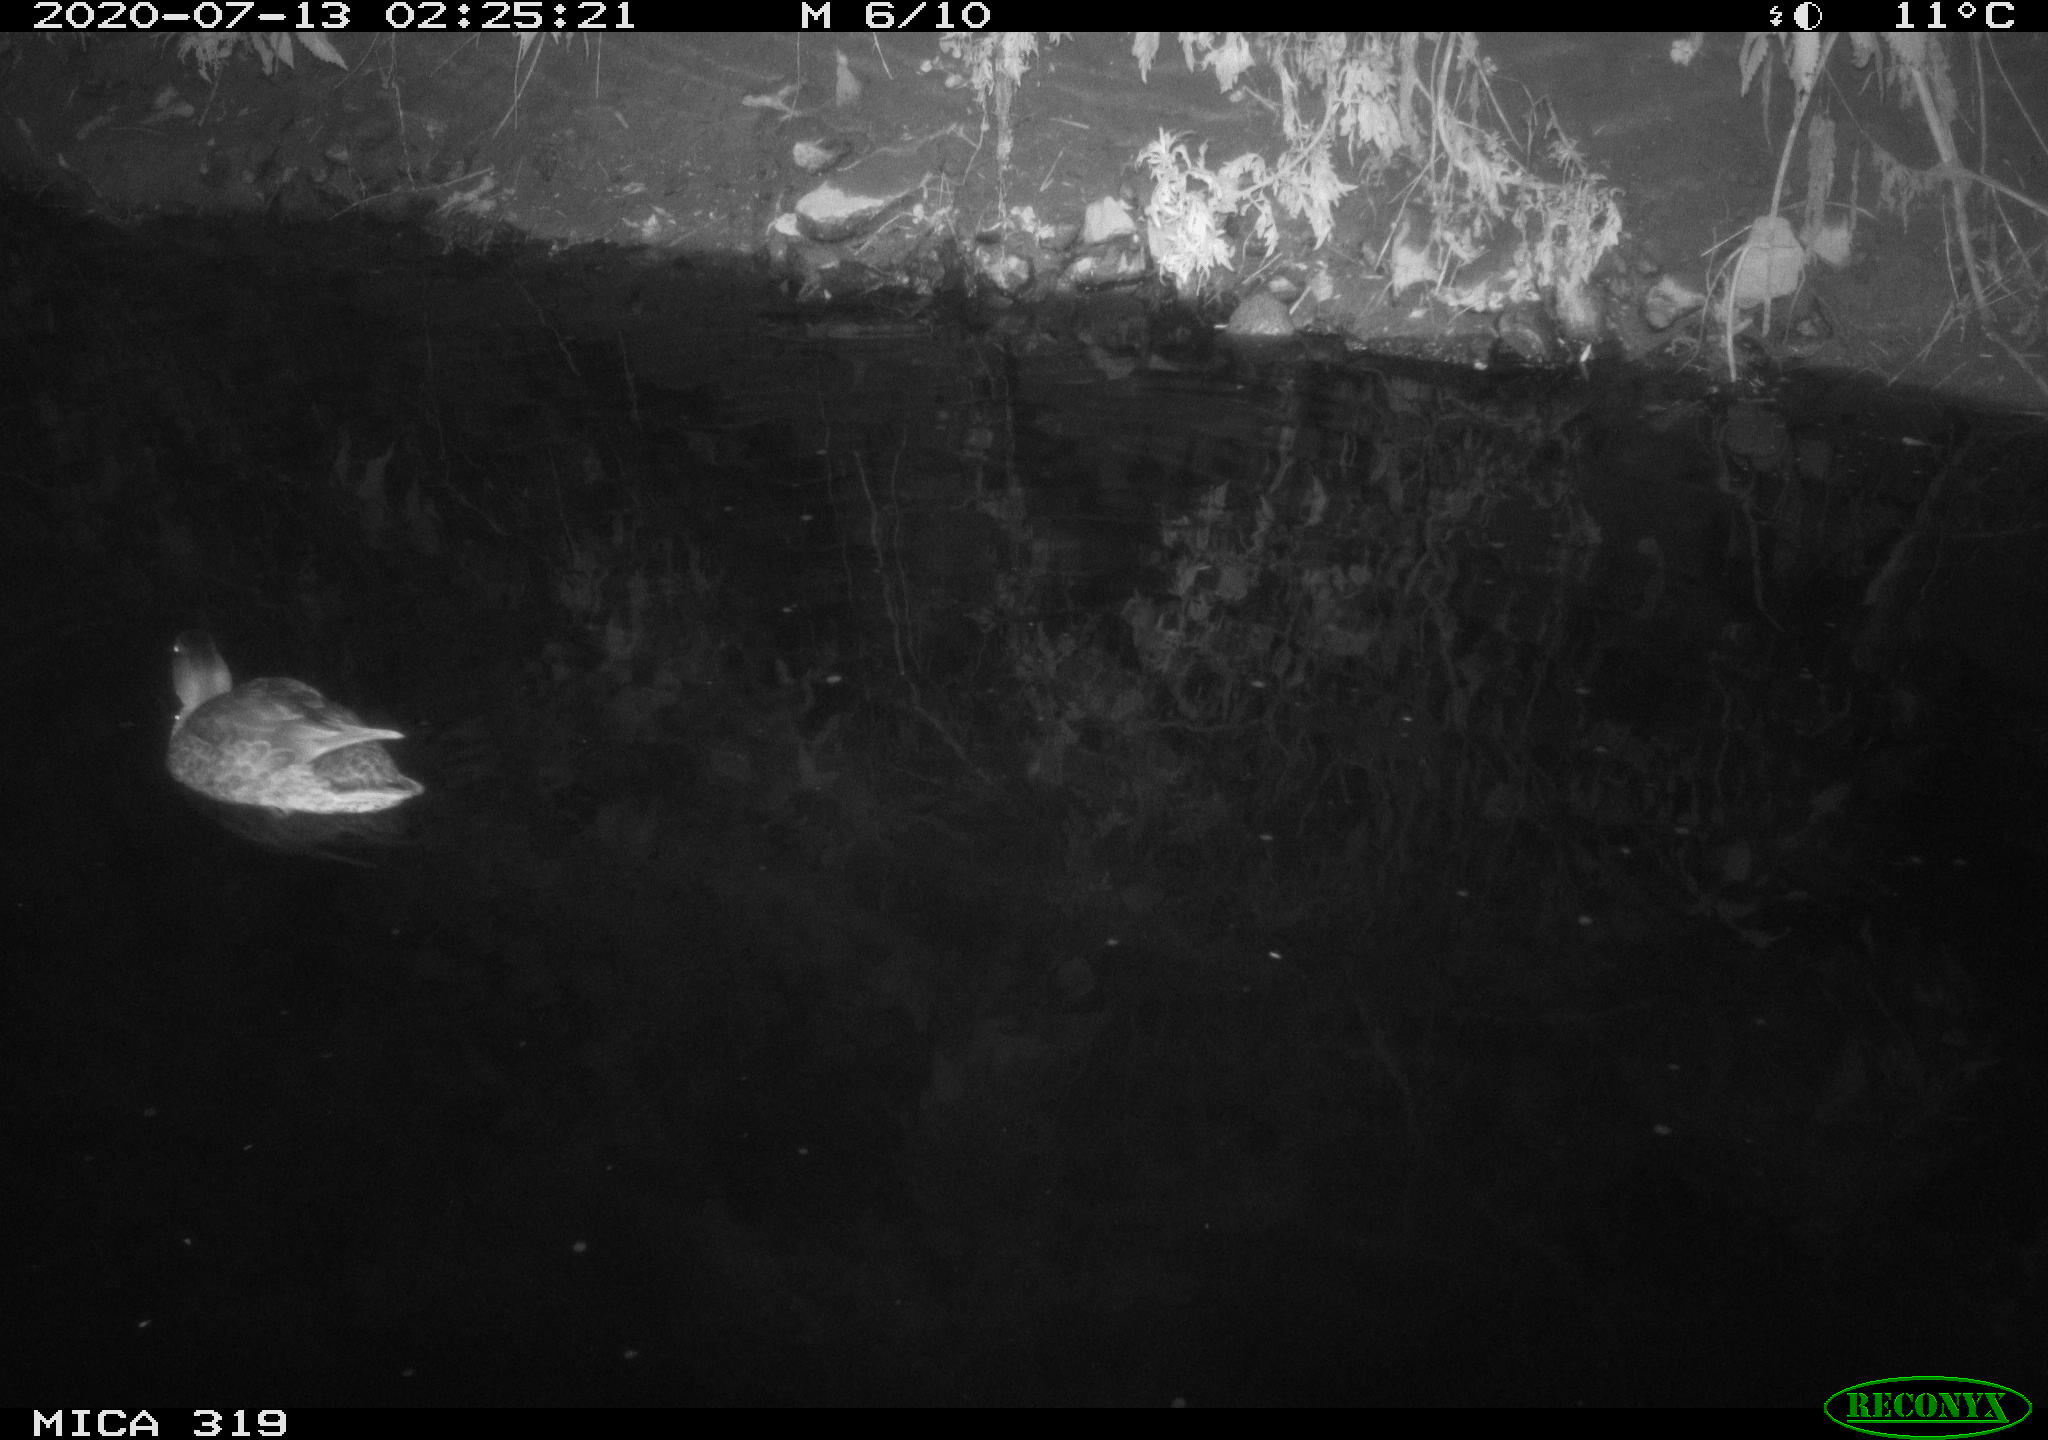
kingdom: Animalia
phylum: Chordata
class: Aves
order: Anseriformes
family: Anatidae
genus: Anas
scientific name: Anas platyrhynchos
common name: Mallard
